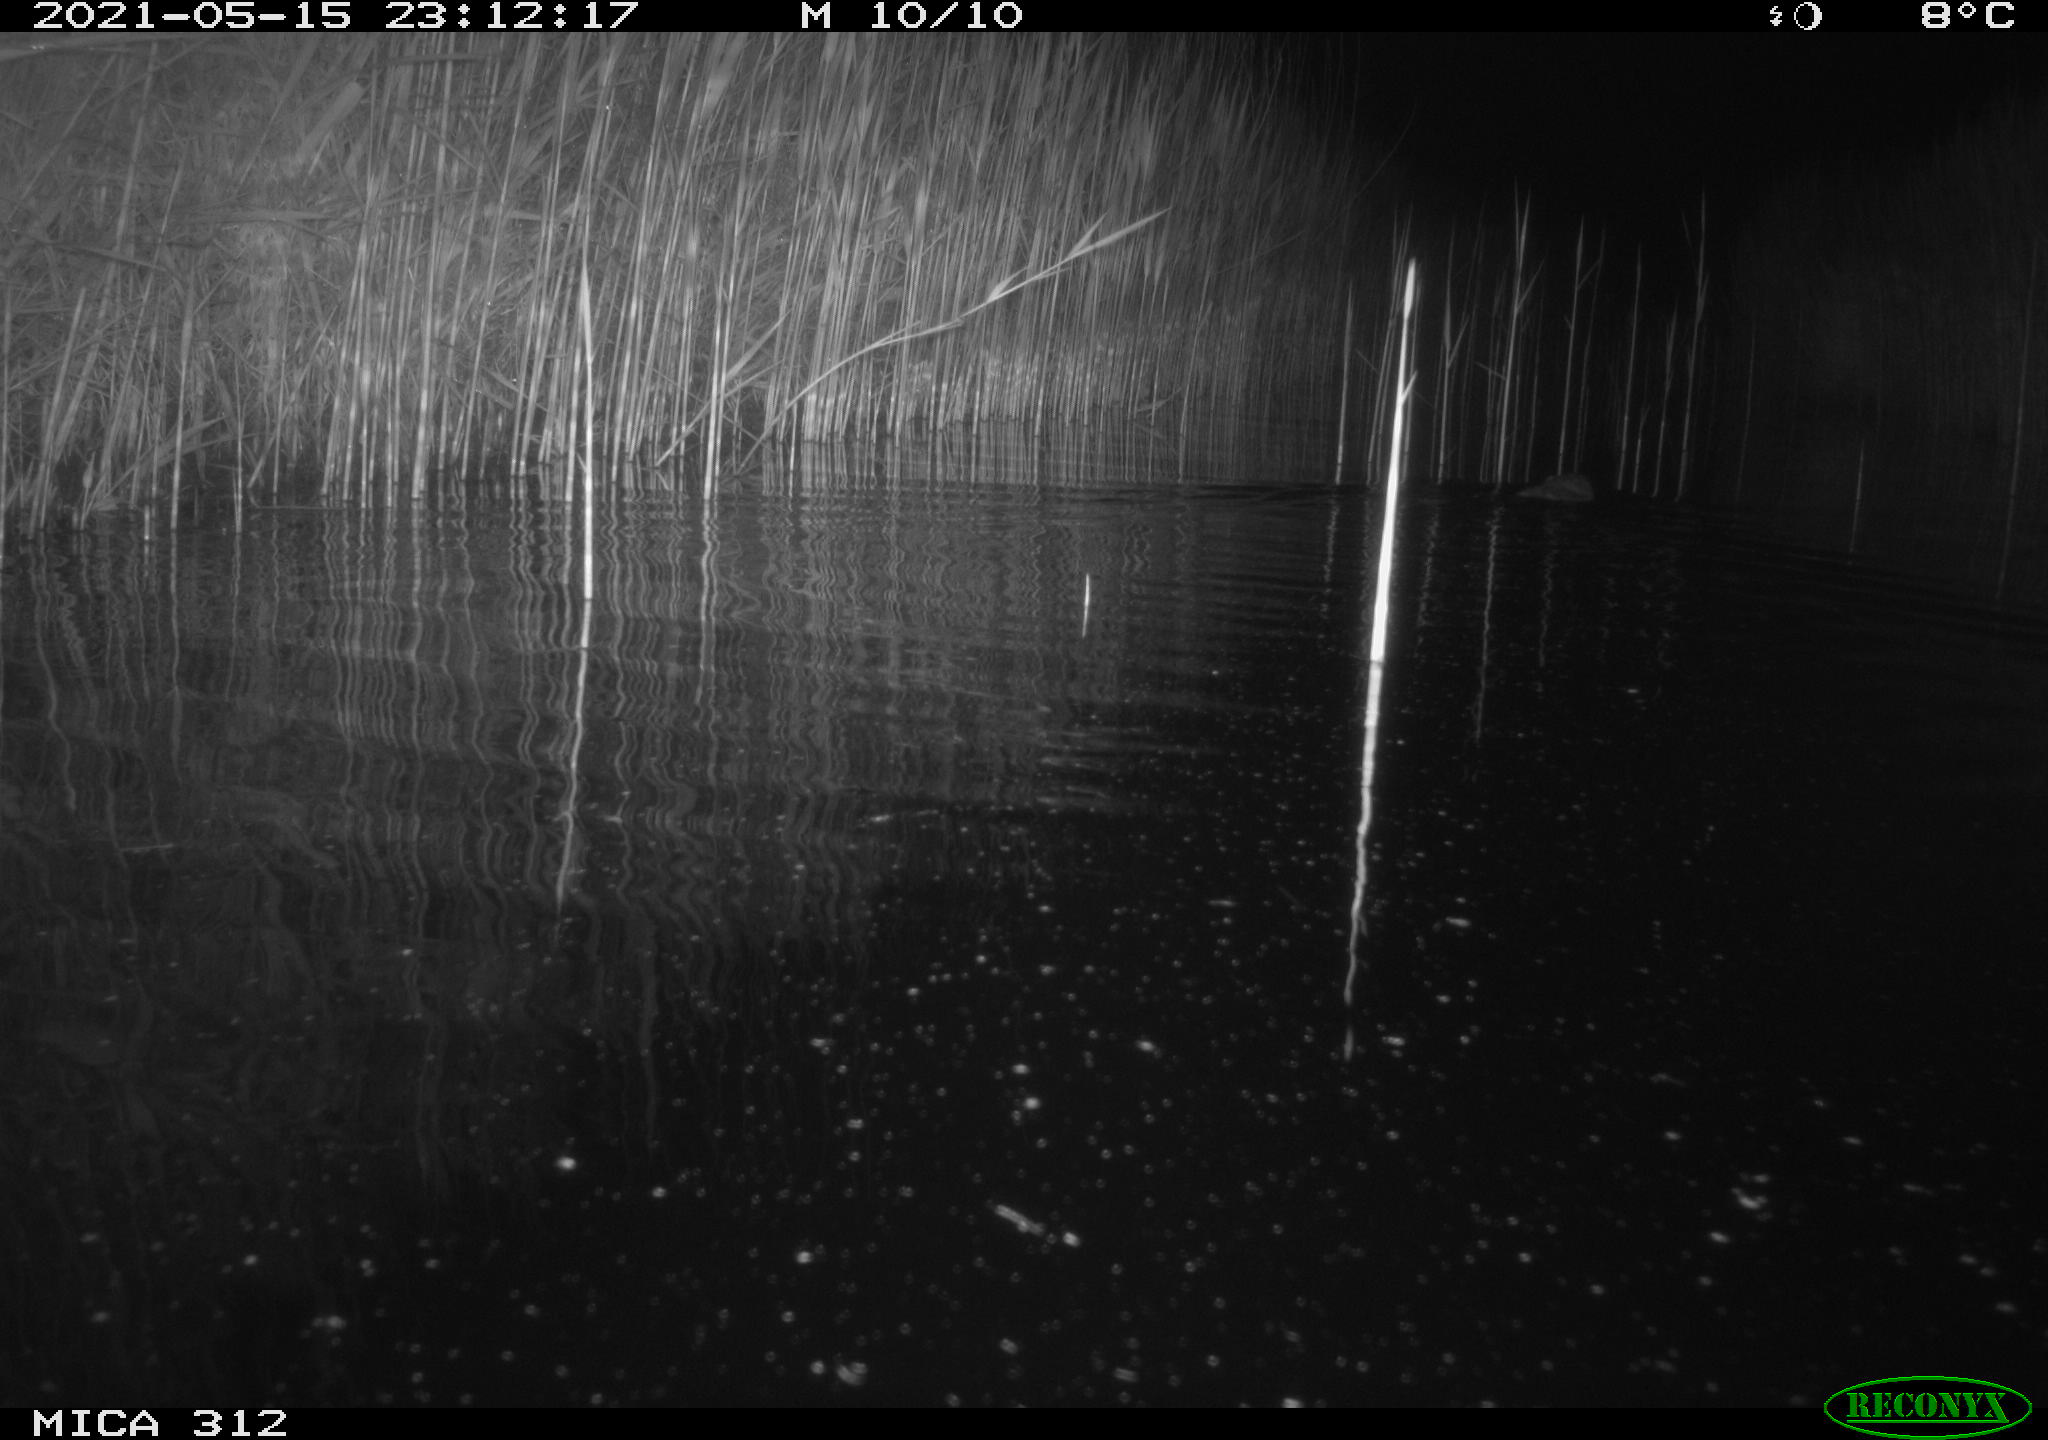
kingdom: Animalia
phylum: Chordata
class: Mammalia
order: Rodentia
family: Cricetidae
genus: Ondatra
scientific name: Ondatra zibethicus
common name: Muskrat
